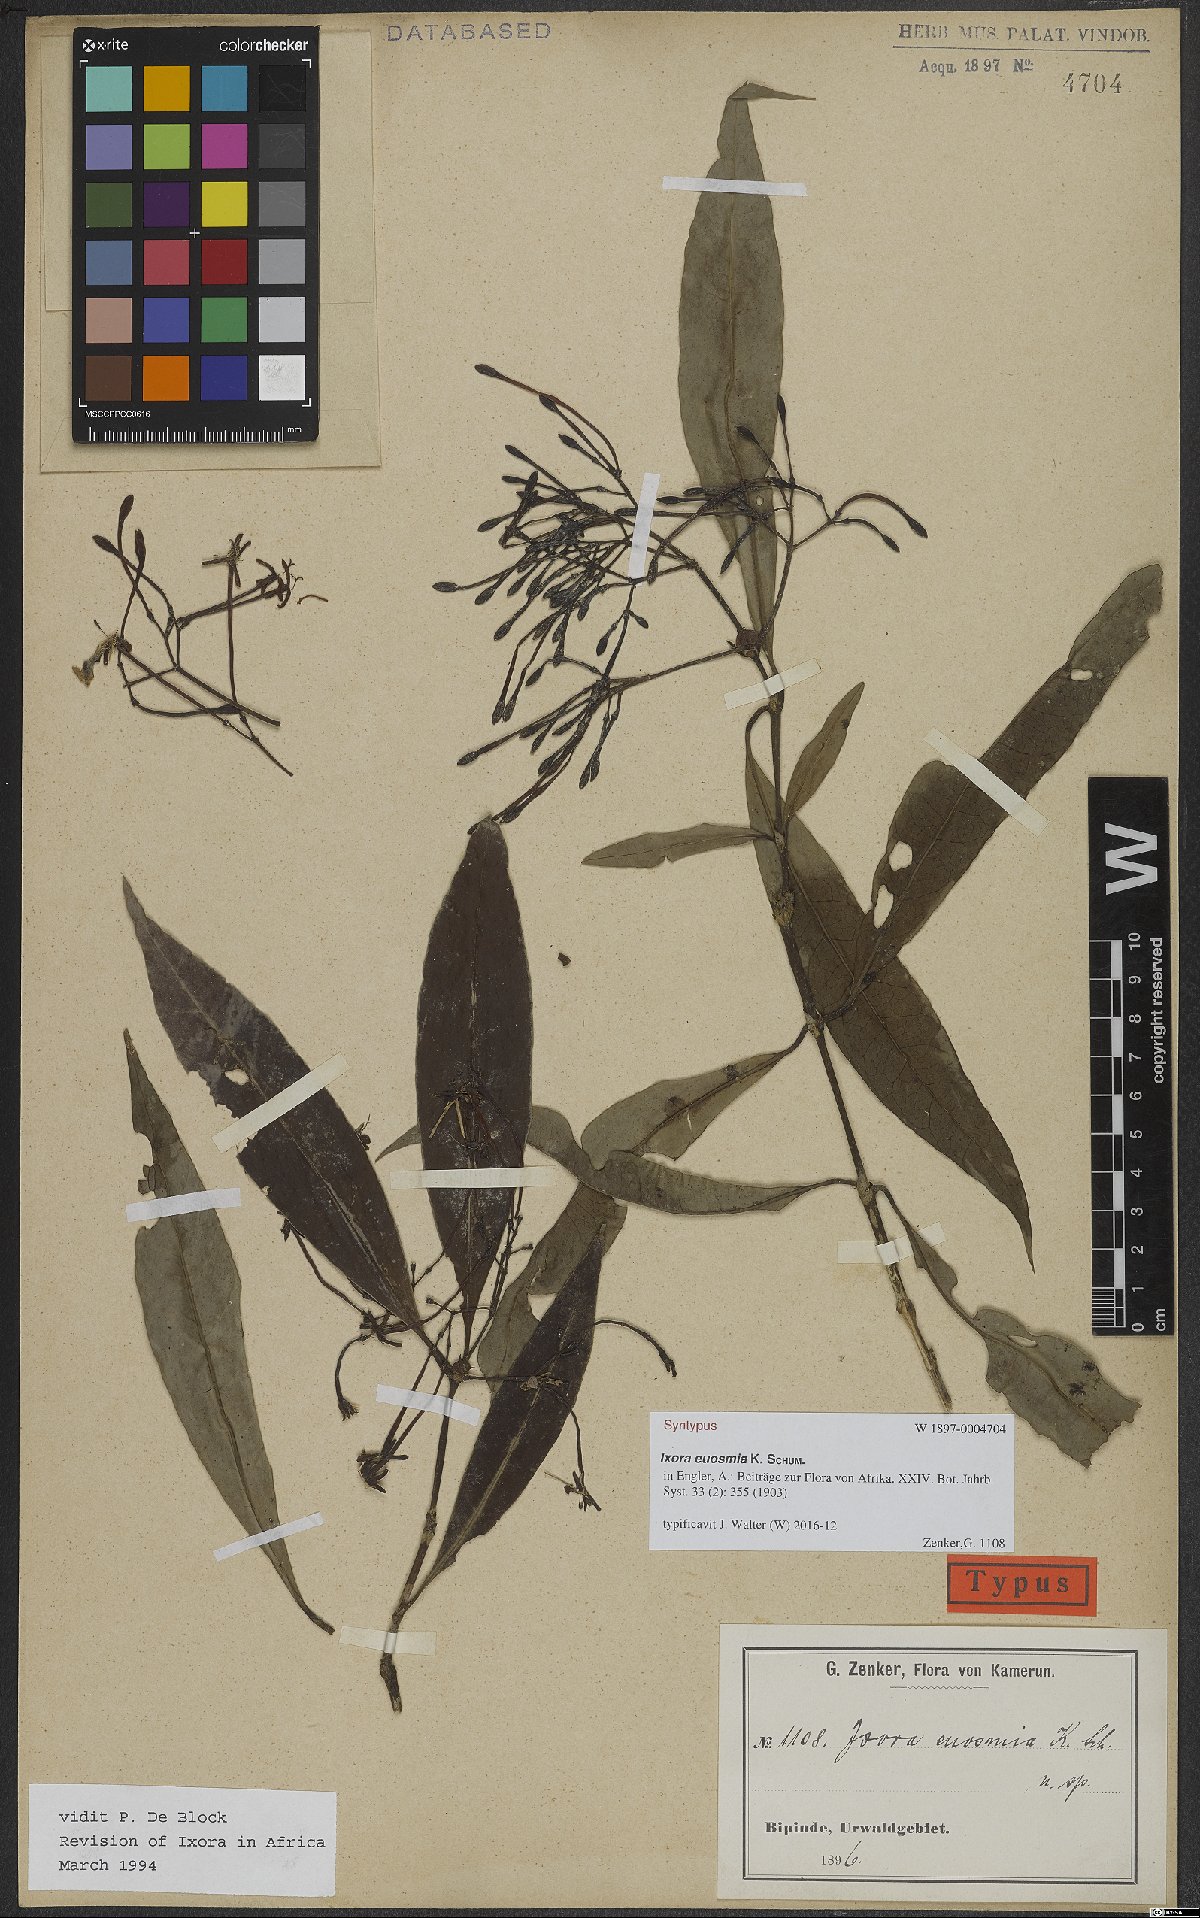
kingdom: Plantae
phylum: Tracheophyta
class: Magnoliopsida
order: Gentianales
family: Rubiaceae
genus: Ixora
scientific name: Ixora euosmia
